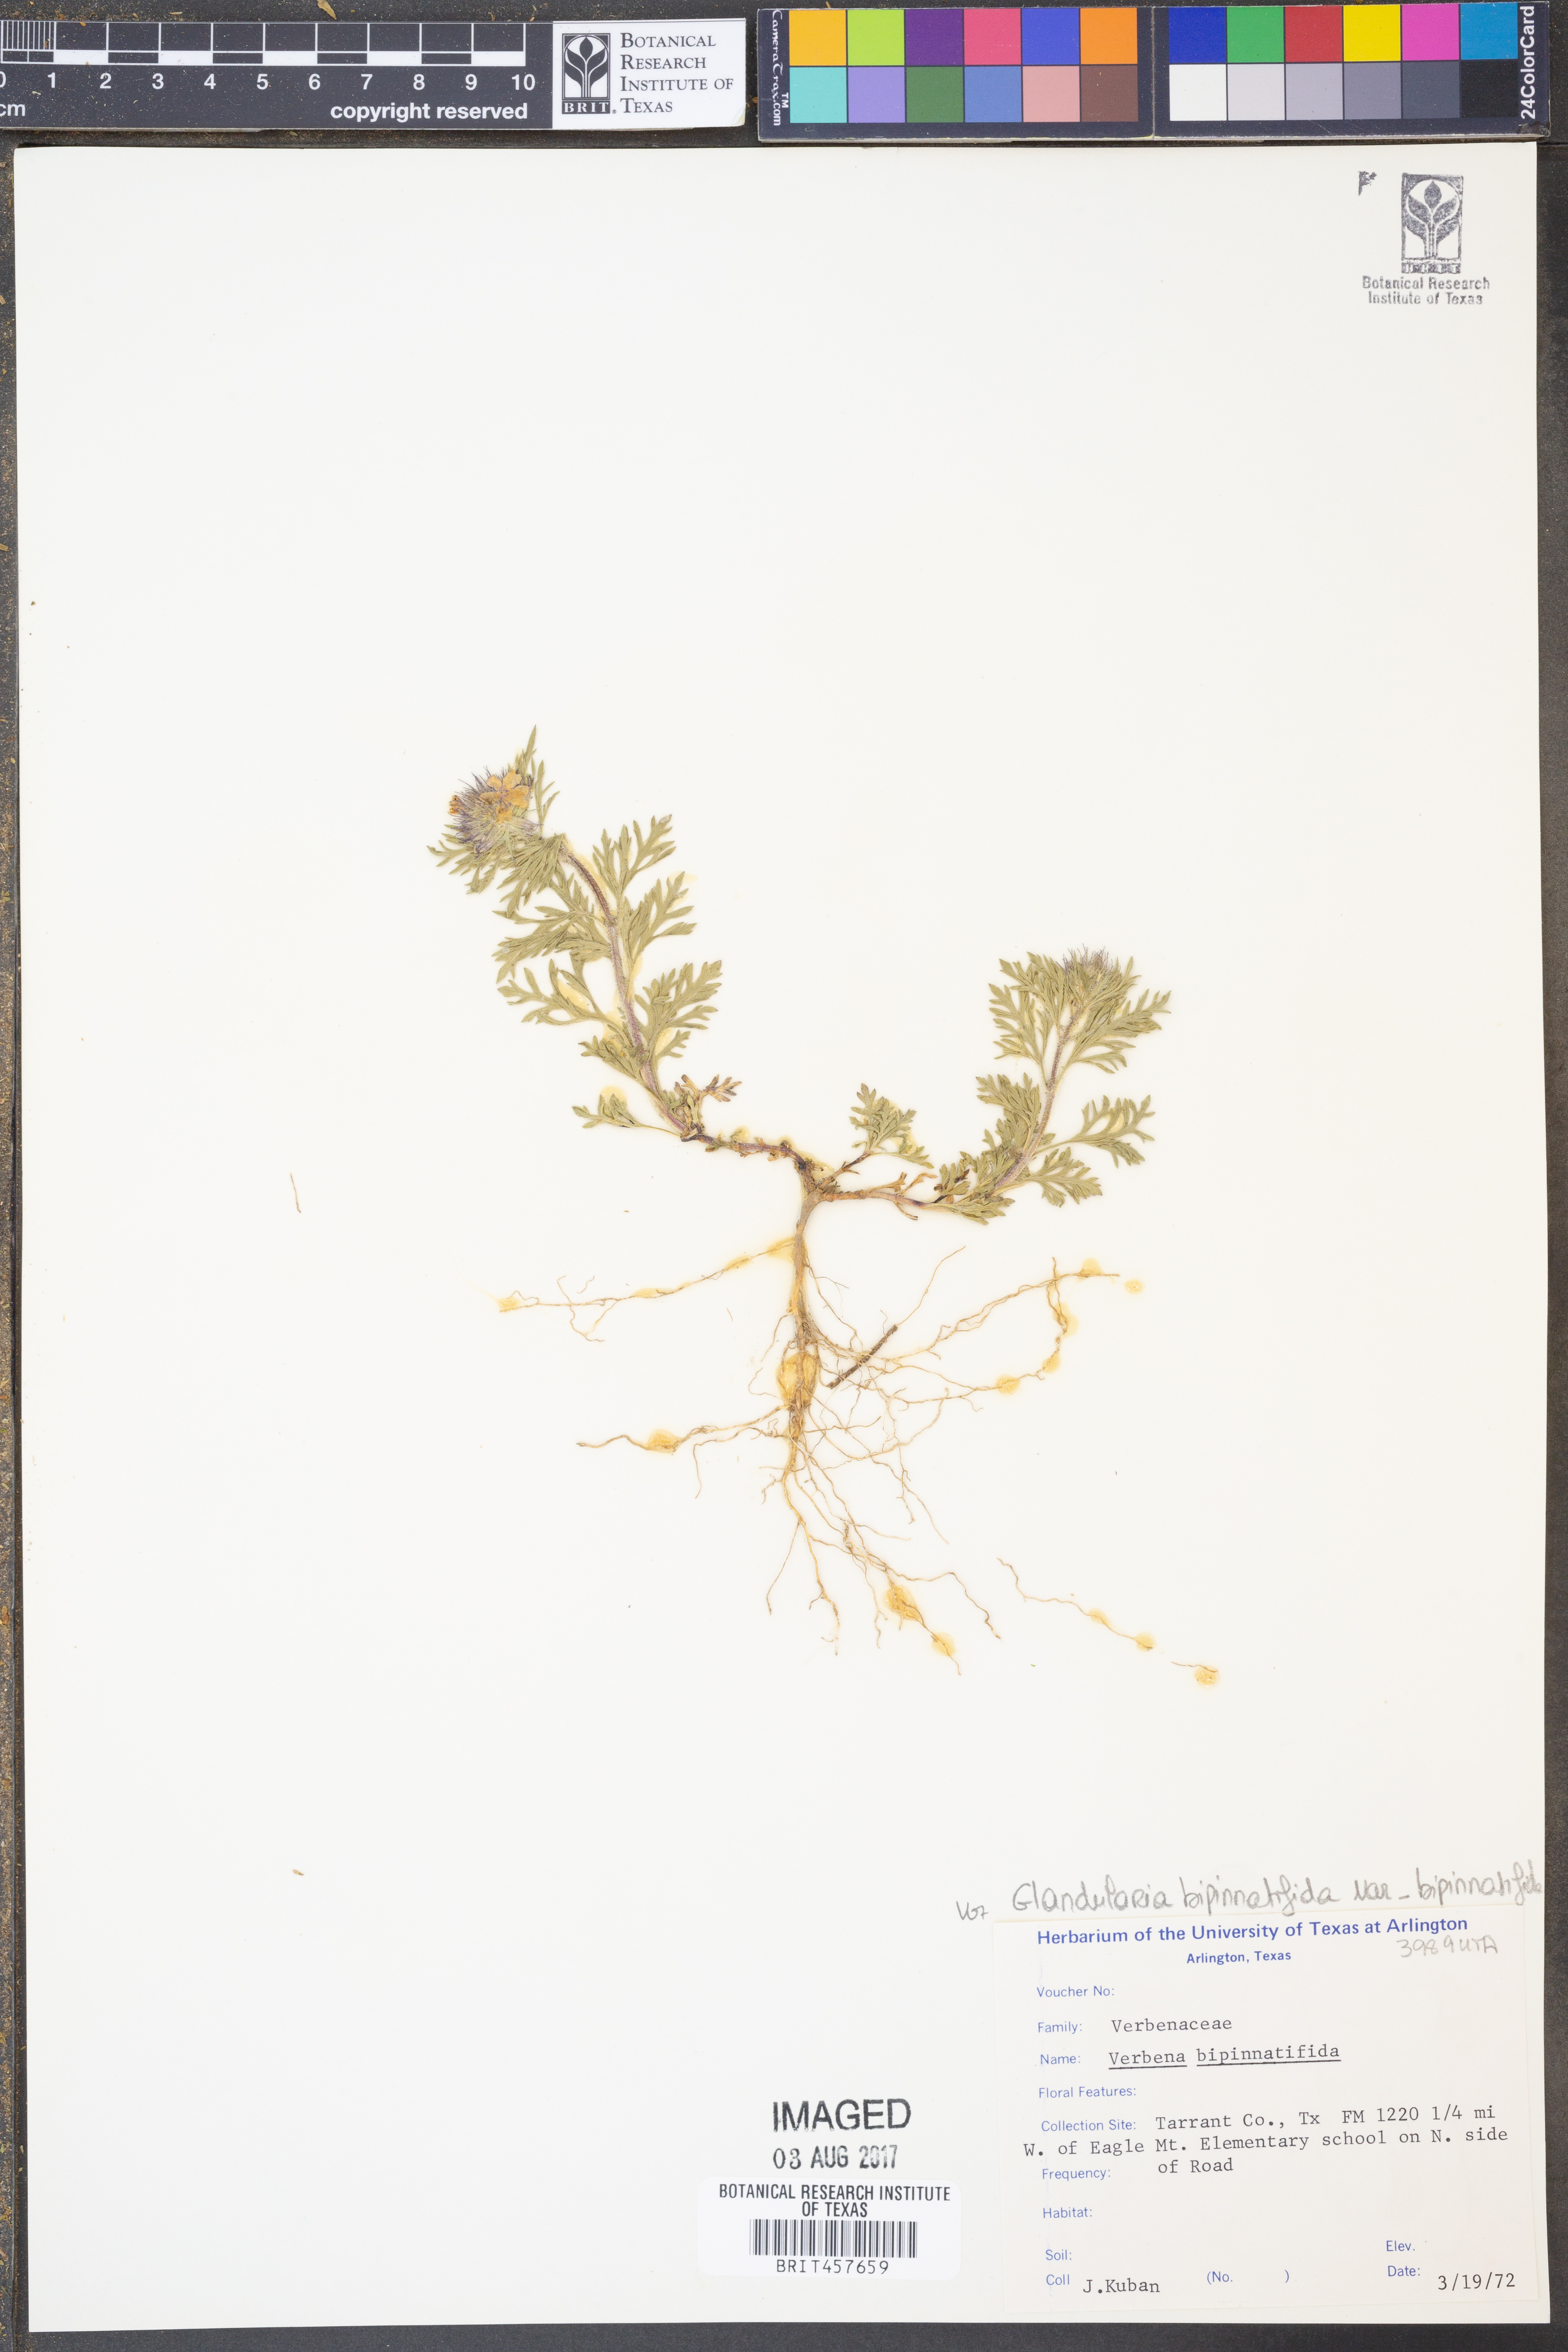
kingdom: Plantae
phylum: Tracheophyta
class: Magnoliopsida
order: Lamiales
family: Verbenaceae
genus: Verbena
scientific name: Verbena bipinnatifida
